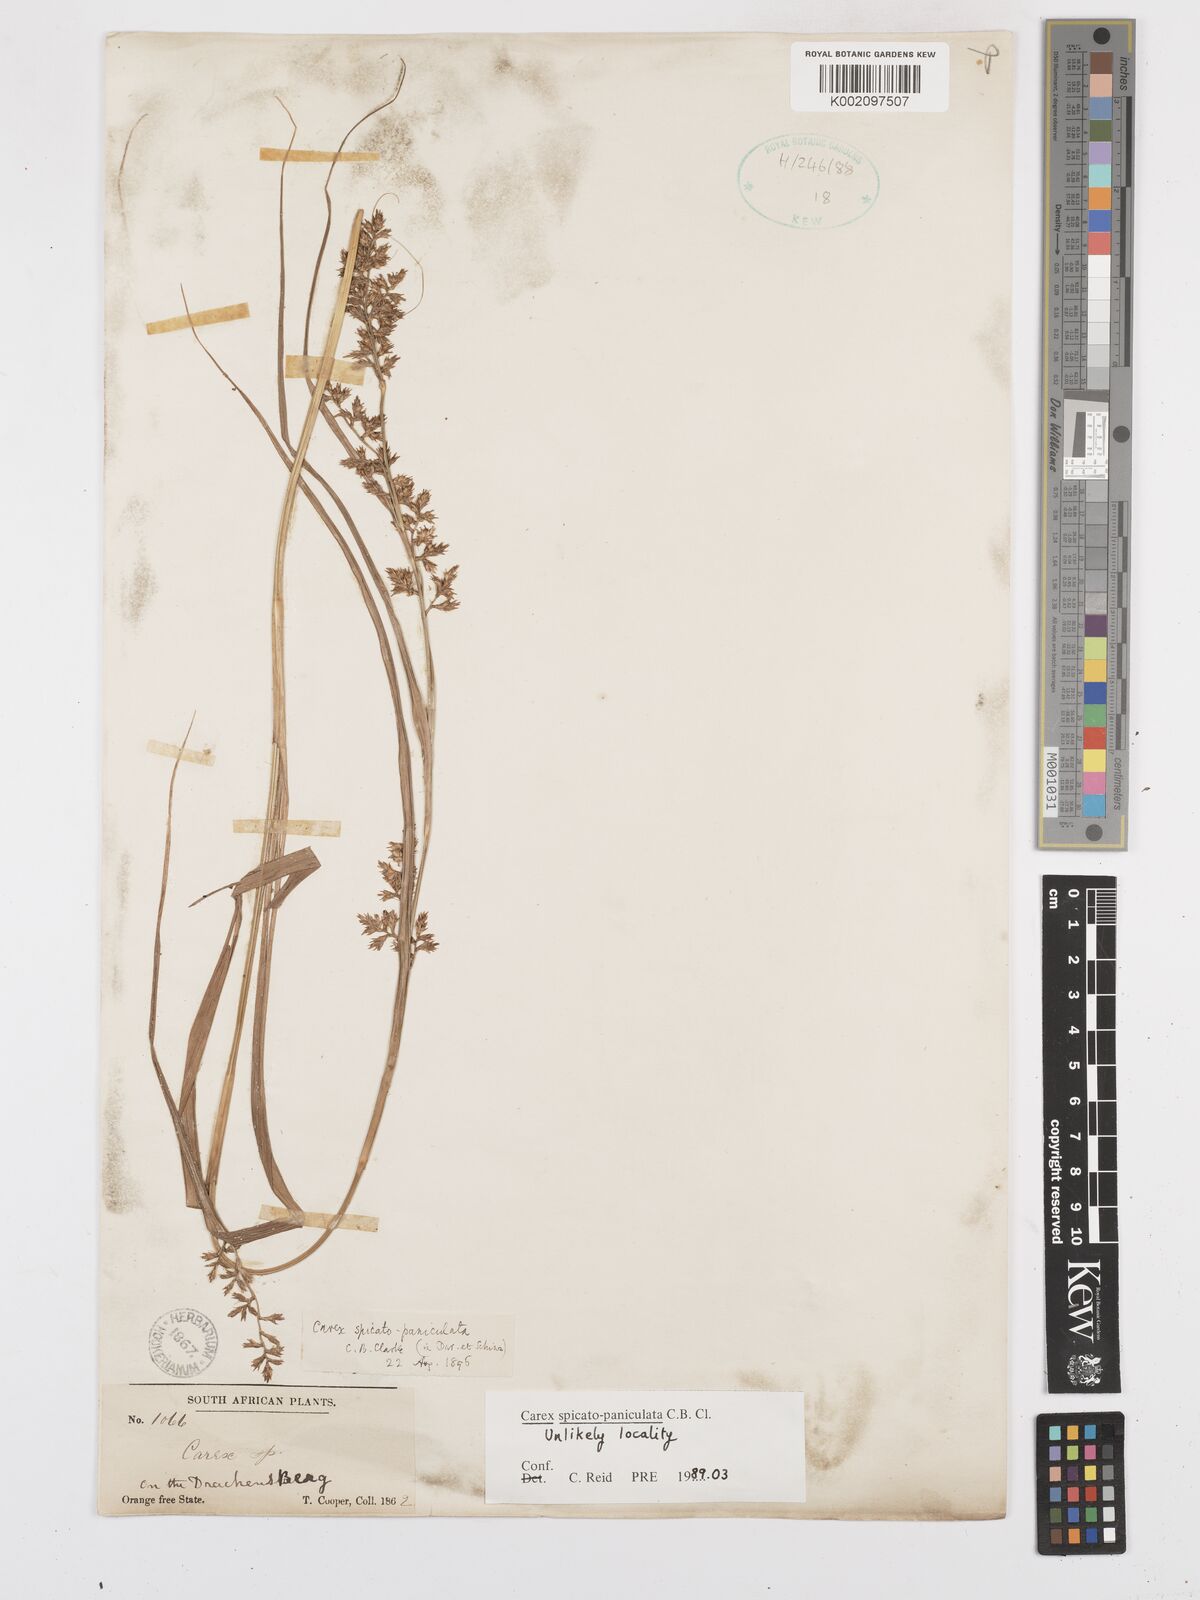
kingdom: Plantae
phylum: Tracheophyta
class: Liliopsida
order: Poales
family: Cyperaceae
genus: Carex
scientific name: Carex spicatopaniculata
